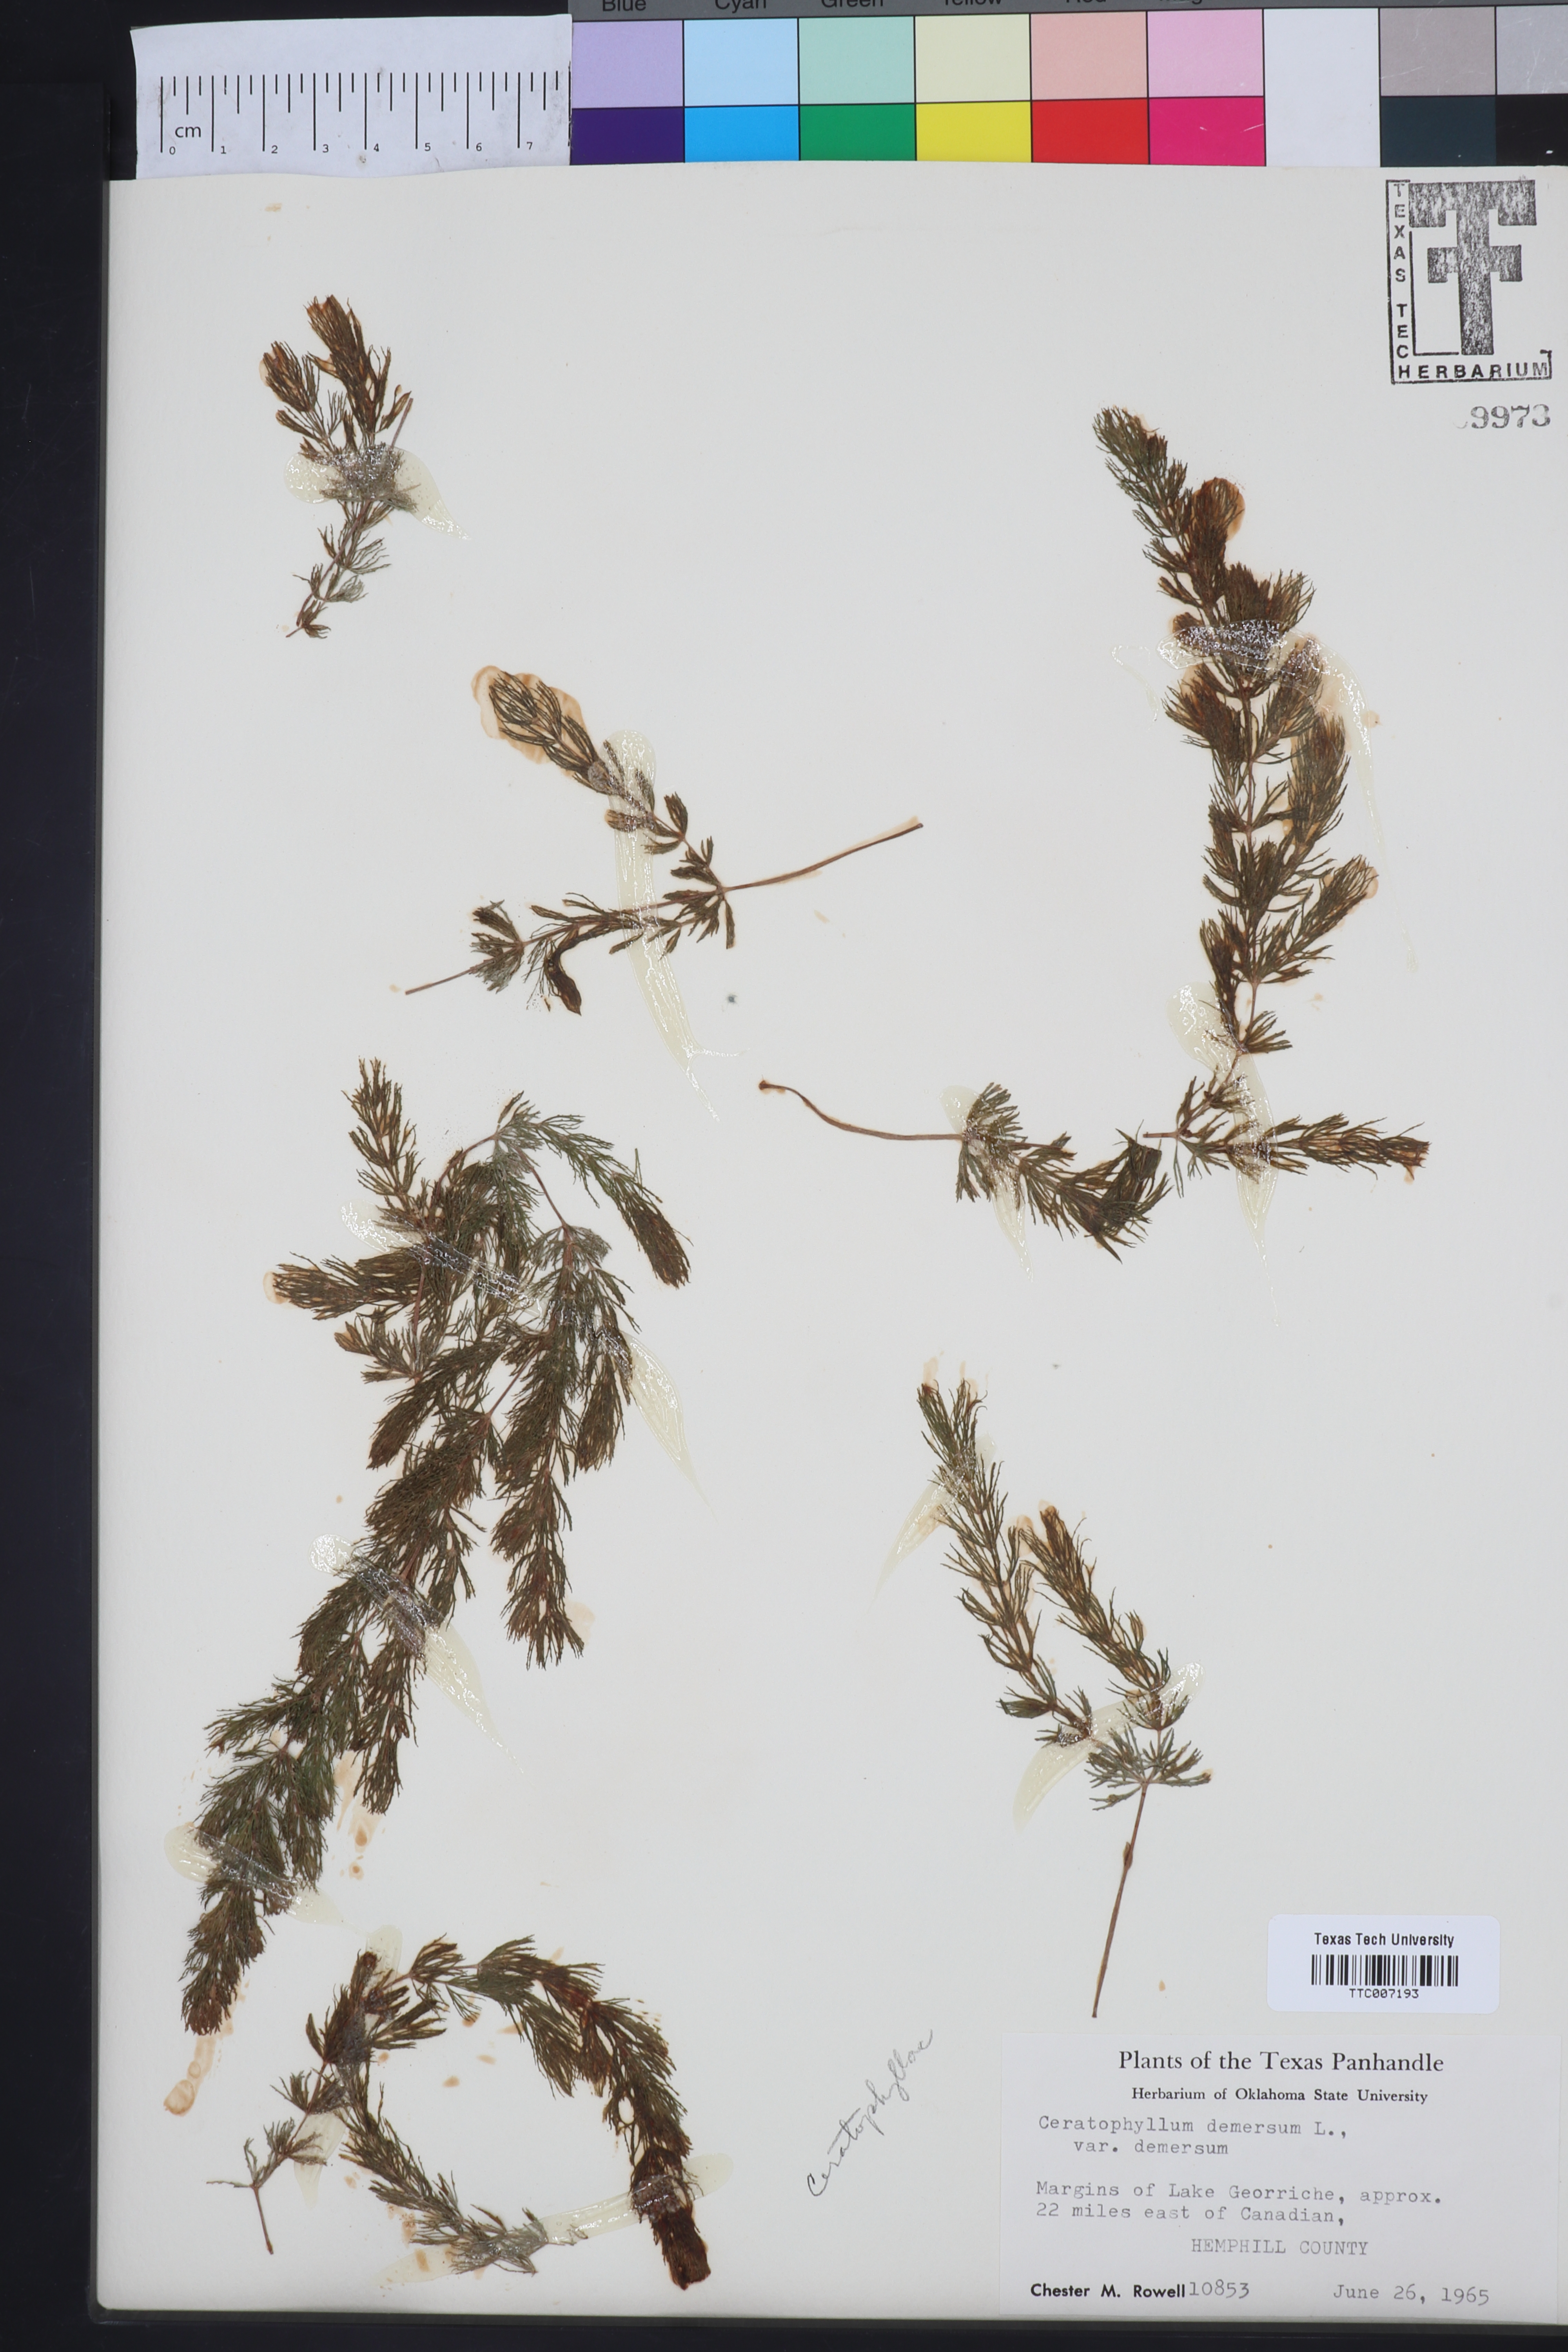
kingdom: Plantae
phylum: Tracheophyta
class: Magnoliopsida
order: Ceratophyllales
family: Ceratophyllaceae
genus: Ceratophyllum
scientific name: Ceratophyllum demersum
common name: Rigid hornwort
